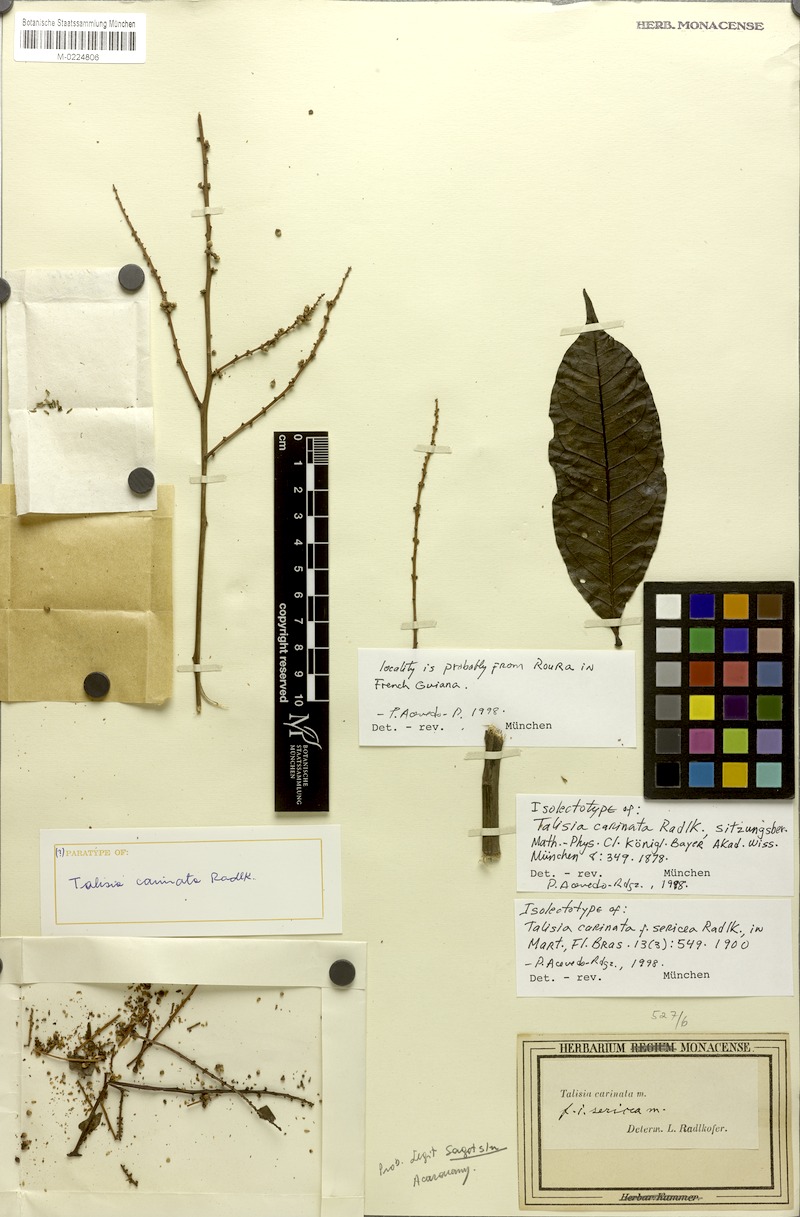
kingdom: Plantae
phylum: Tracheophyta
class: Magnoliopsida
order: Sapindales
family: Sapindaceae
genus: Talisia
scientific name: Talisia carinata
